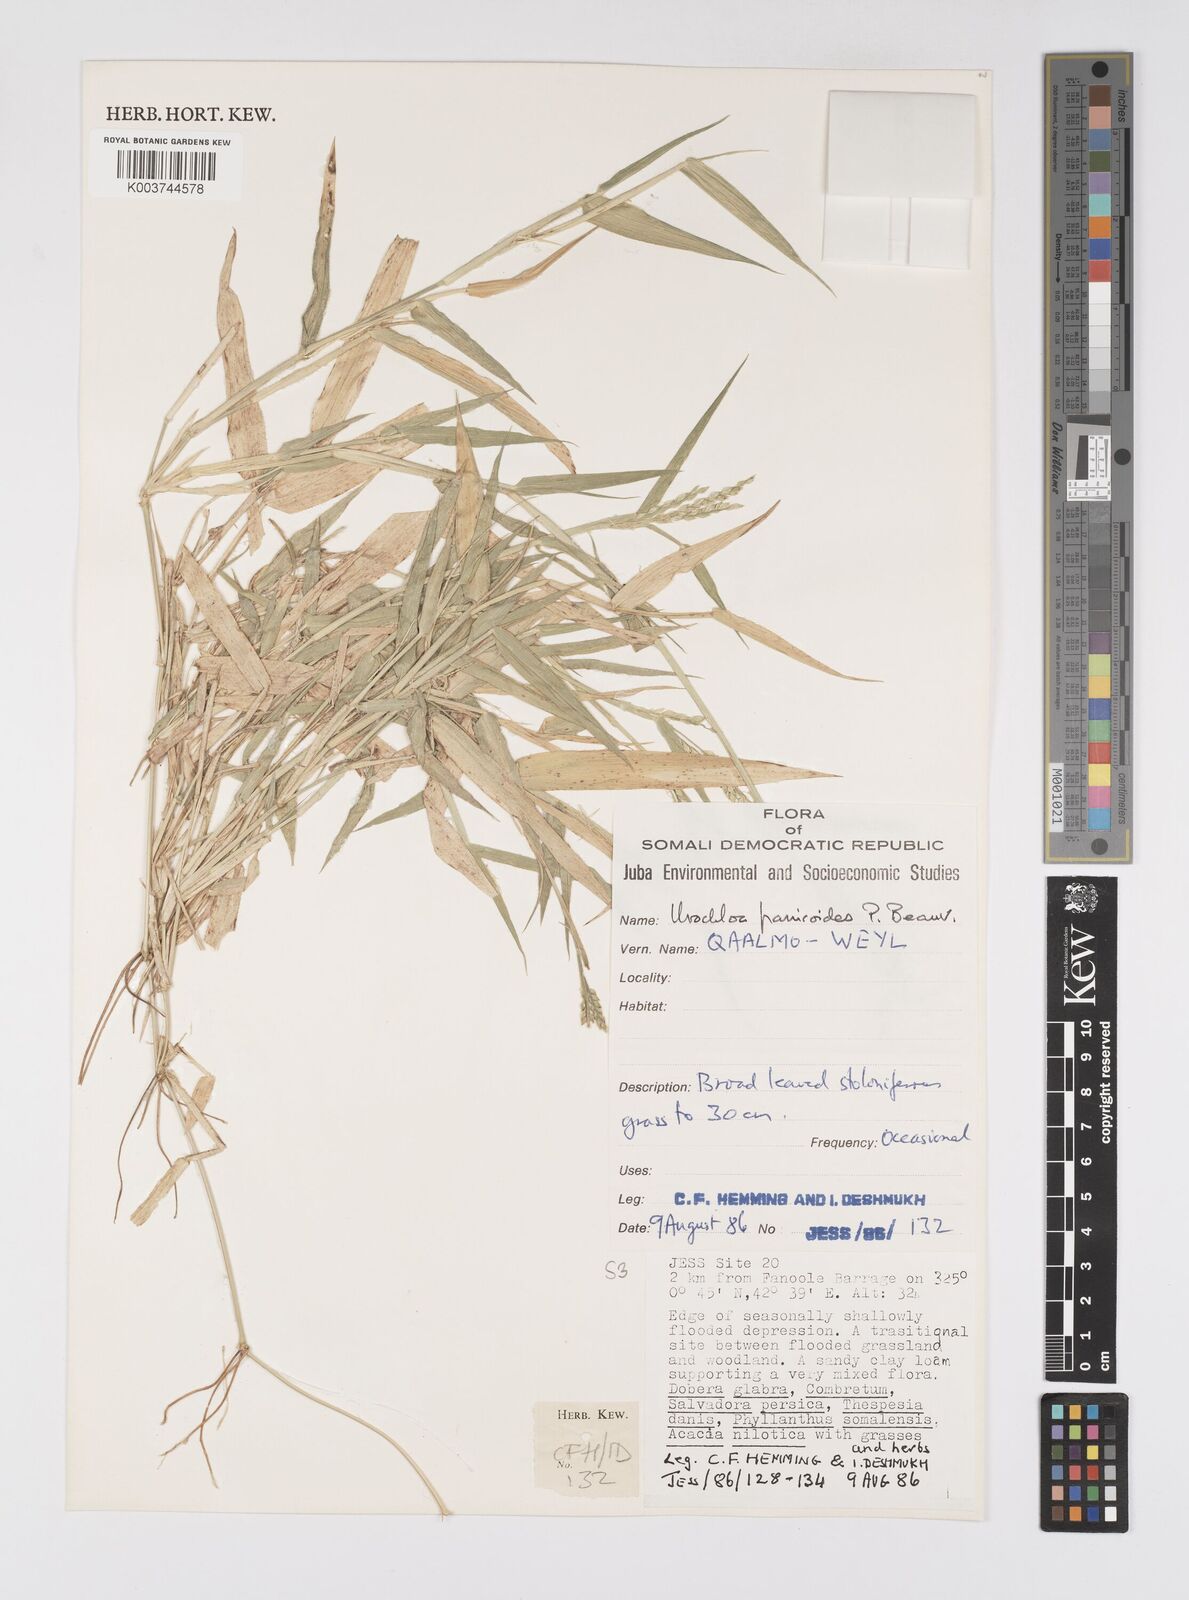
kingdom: Plantae
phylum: Tracheophyta
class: Liliopsida
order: Poales
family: Poaceae
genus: Urochloa
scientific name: Urochloa panicoides
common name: Sharp-flowered signal-grass
